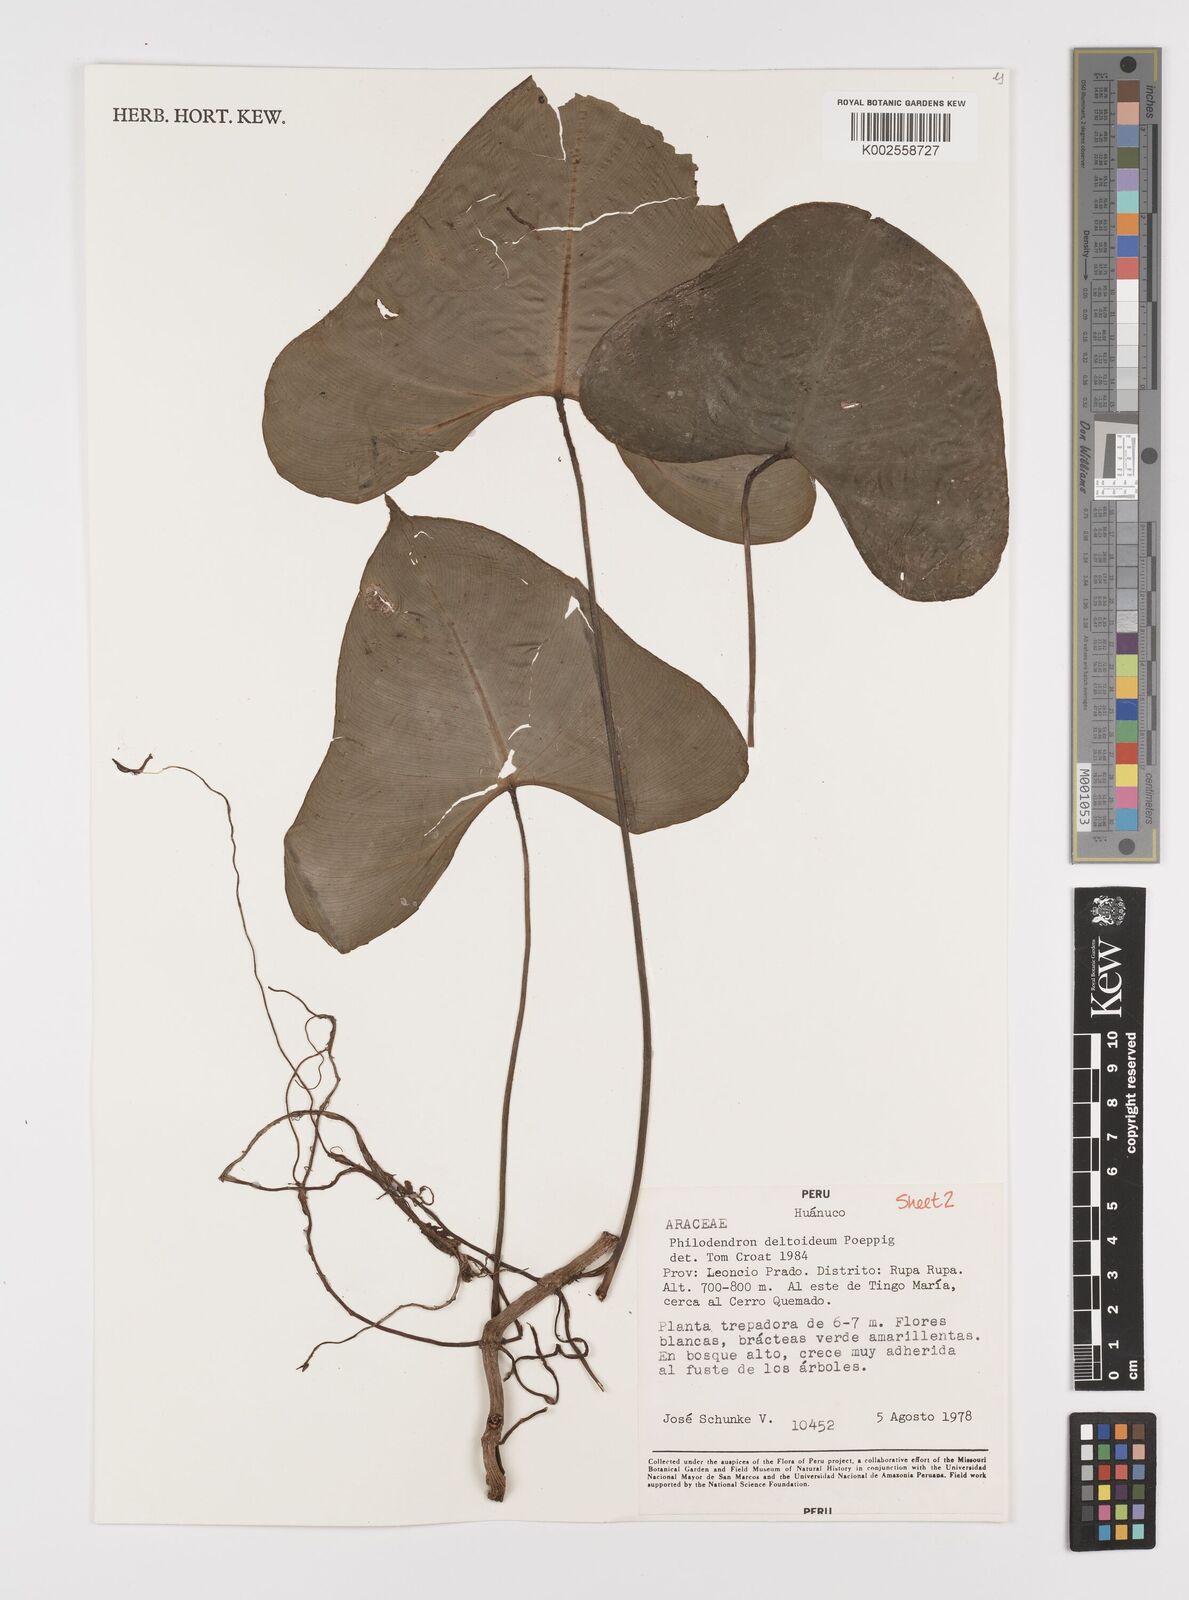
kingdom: Plantae
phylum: Tracheophyta
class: Liliopsida
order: Alismatales
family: Araceae
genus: Philodendron
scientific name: Philodendron deltoideum
